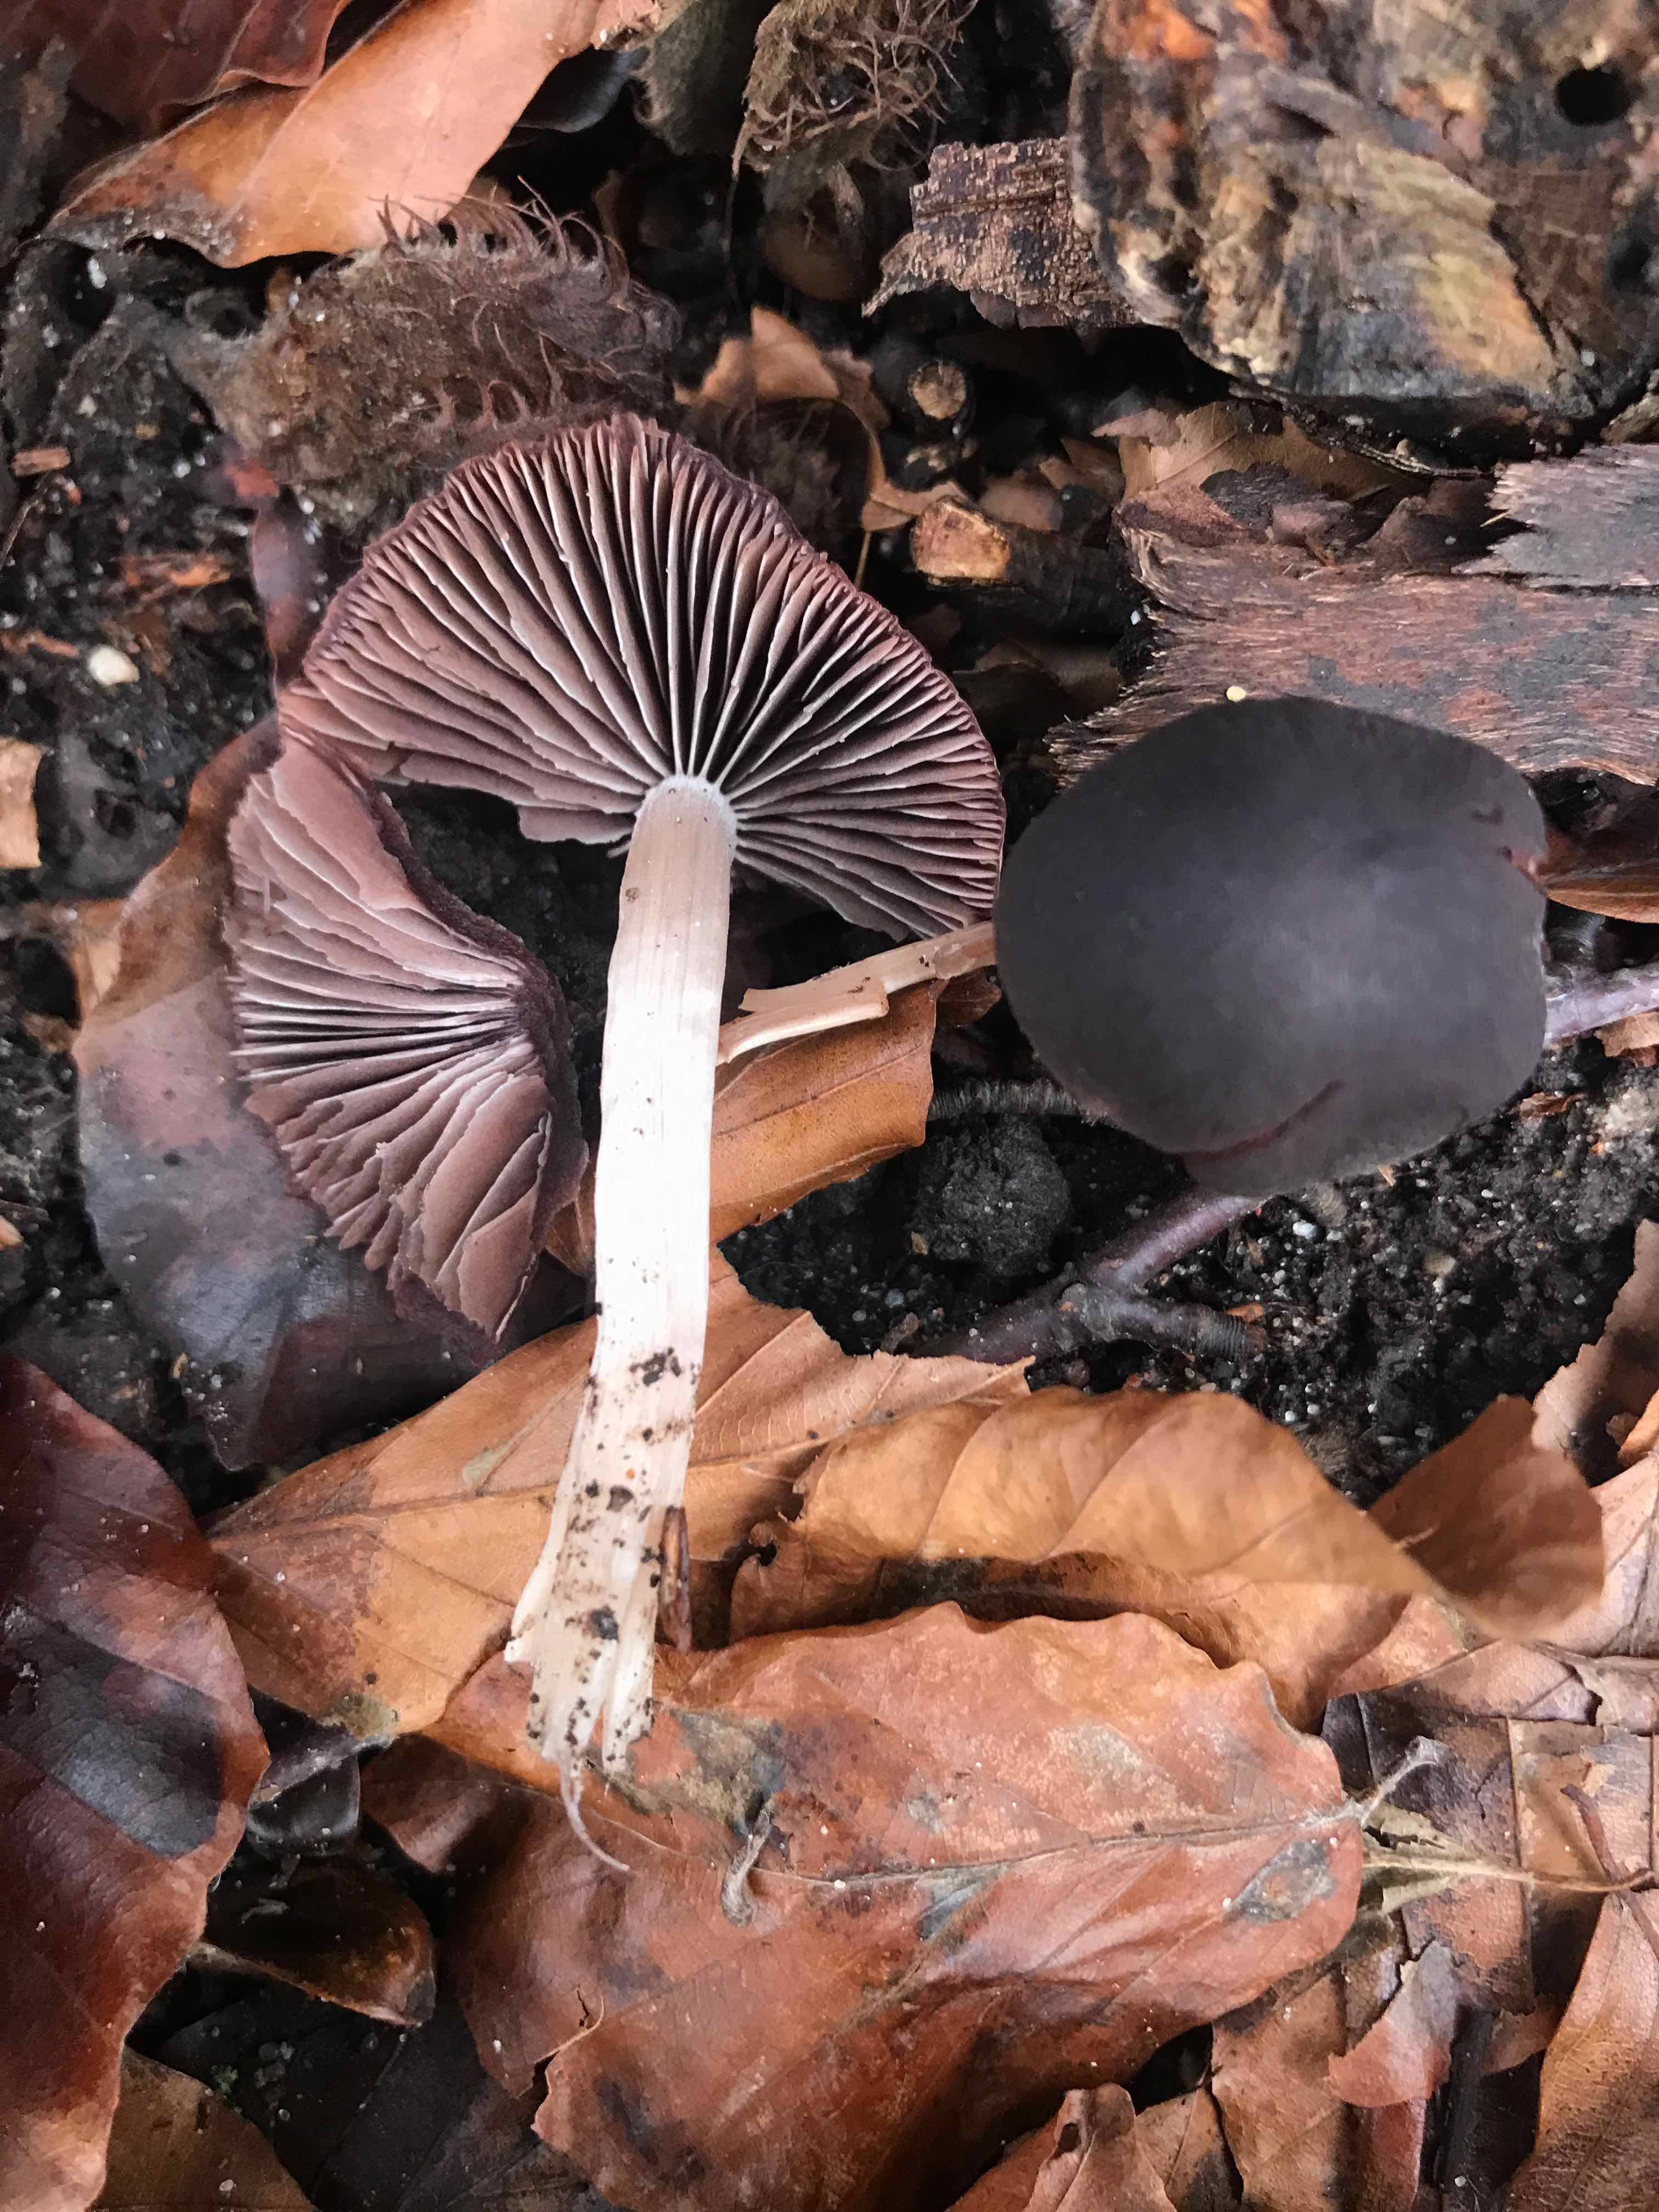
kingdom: Fungi
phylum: Basidiomycota
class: Agaricomycetes
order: Agaricales
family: Psathyrellaceae
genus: Psathyrella
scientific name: Psathyrella bipellis
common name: vinrød mørkhat
